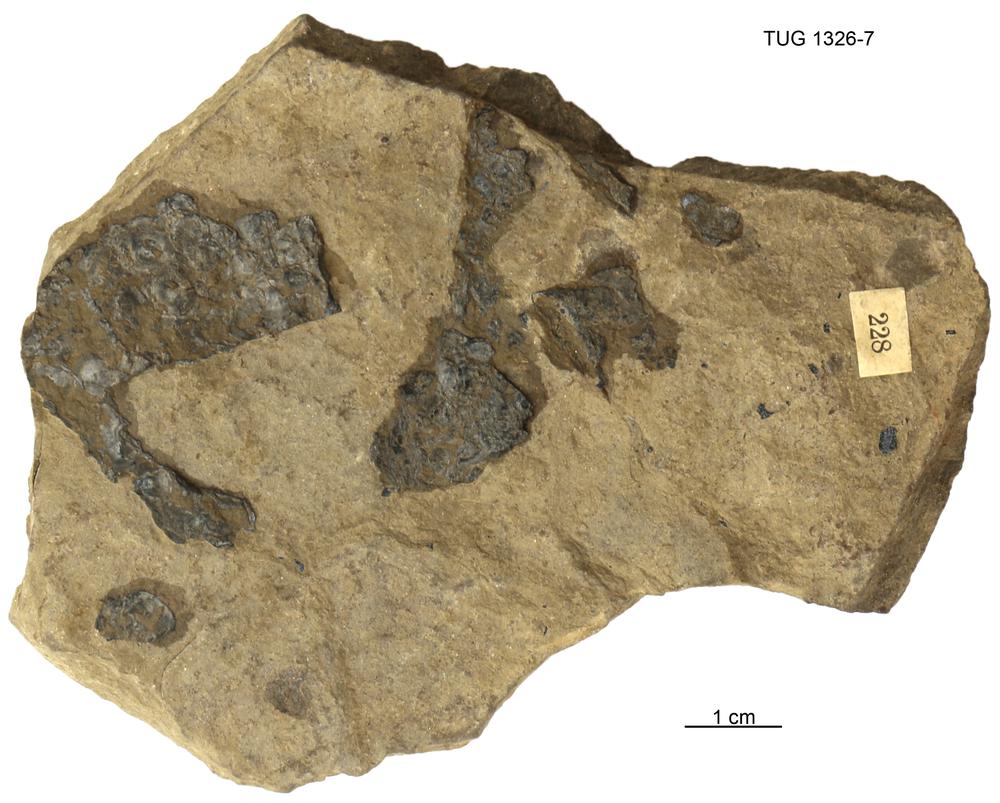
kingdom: Animalia
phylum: Chordata
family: Coccosteidae
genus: Coccosteus
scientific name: Coccosteus decipiens
